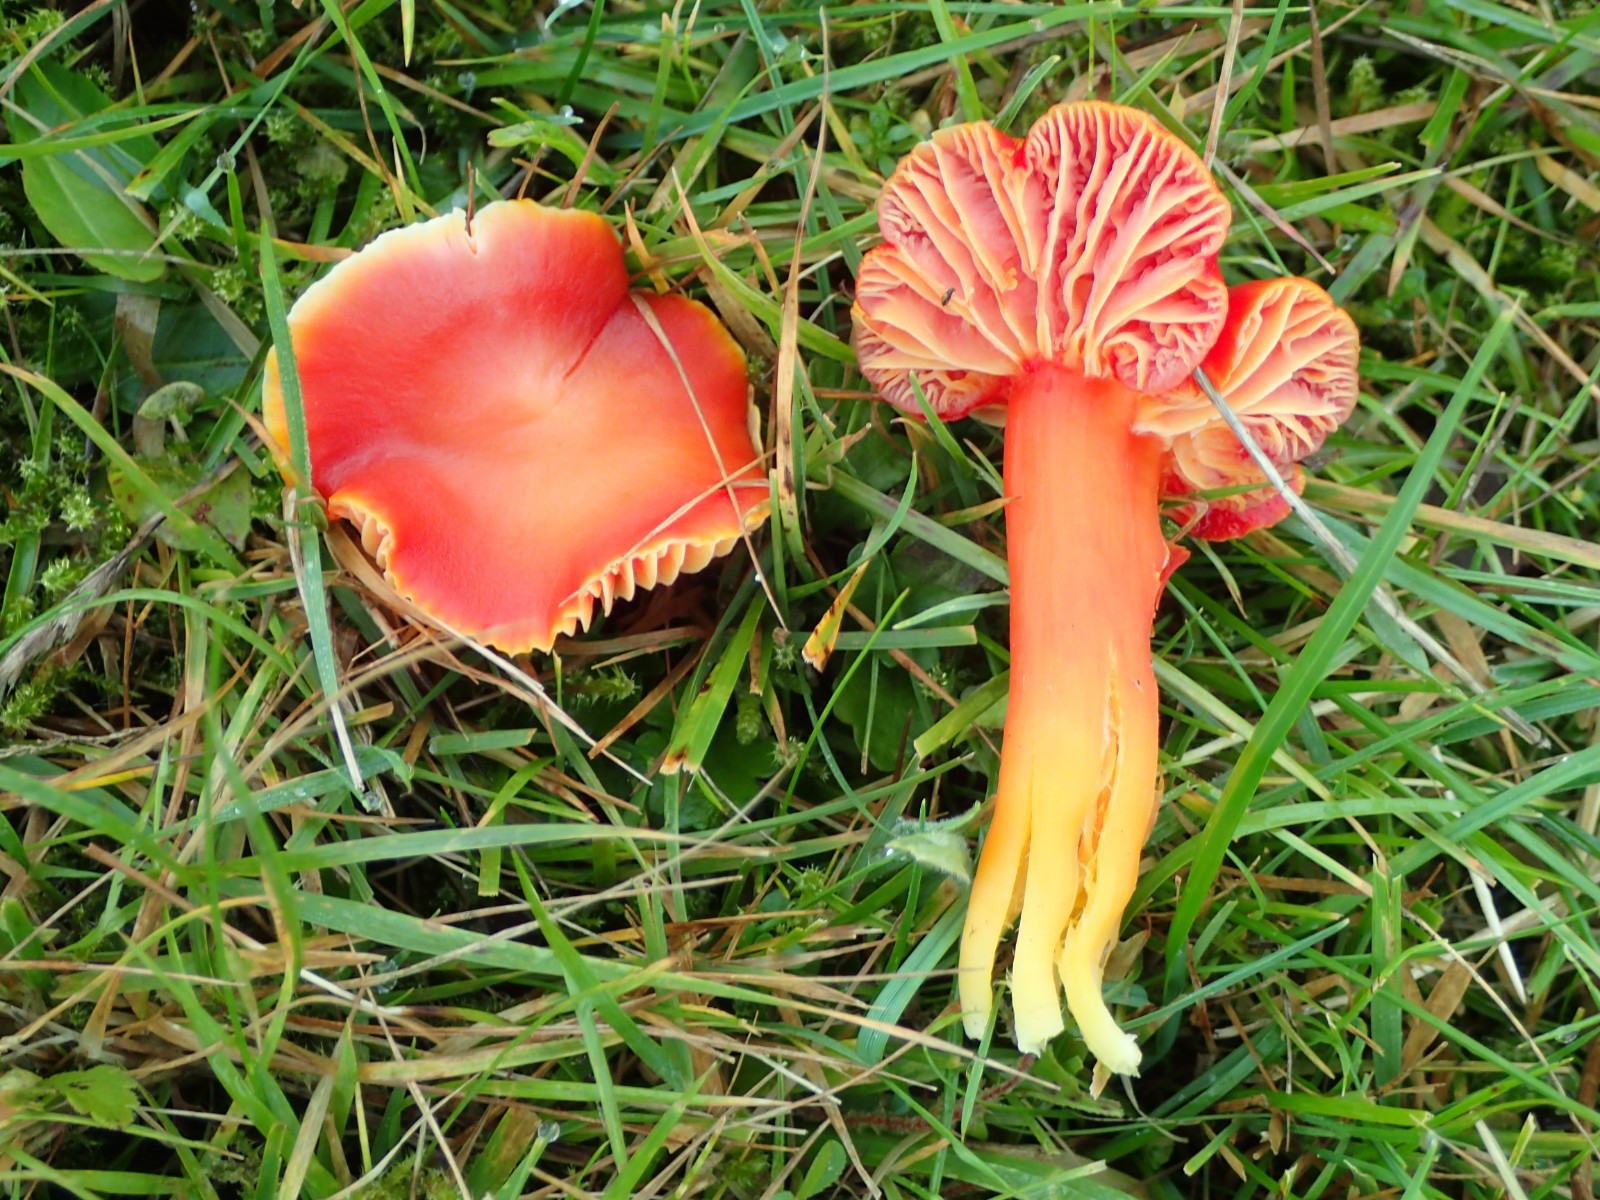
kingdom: Fungi
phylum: Basidiomycota
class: Agaricomycetes
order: Agaricales
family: Hygrophoraceae
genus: Hygrocybe
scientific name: Hygrocybe splendidissima
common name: knaldrød vokshat
